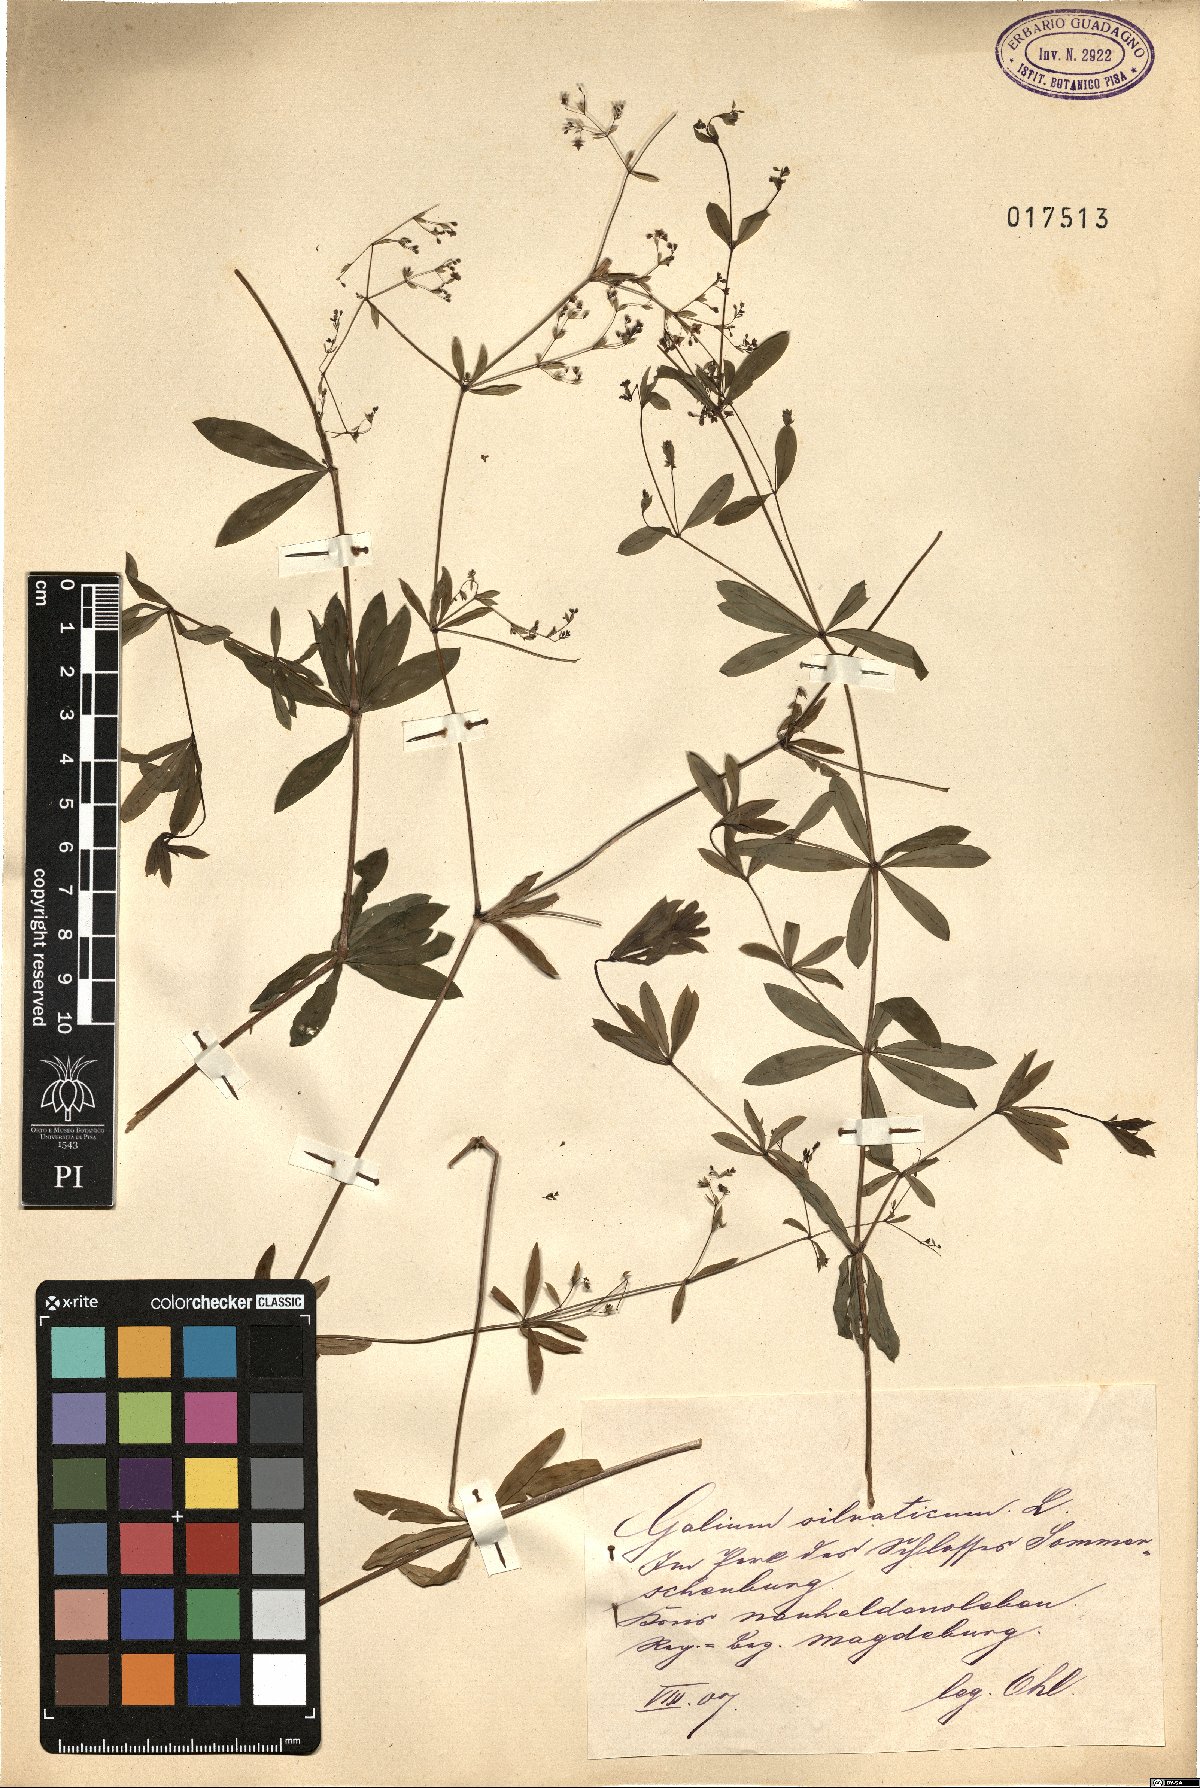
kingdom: Plantae
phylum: Tracheophyta
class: Magnoliopsida
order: Gentianales
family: Rubiaceae
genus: Galium
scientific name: Galium sylvaticum
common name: Wood bedstraw
